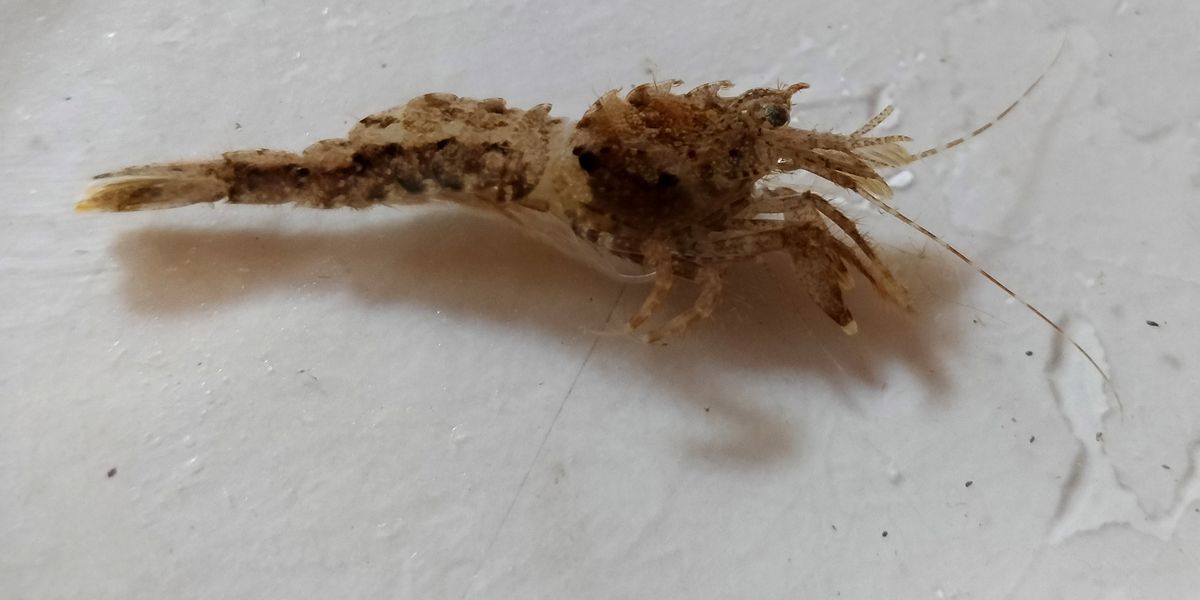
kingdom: Animalia
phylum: Arthropoda
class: Malacostraca
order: Decapoda
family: Crangonidae
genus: Sclerocrangon
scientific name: Sclerocrangon boreas
